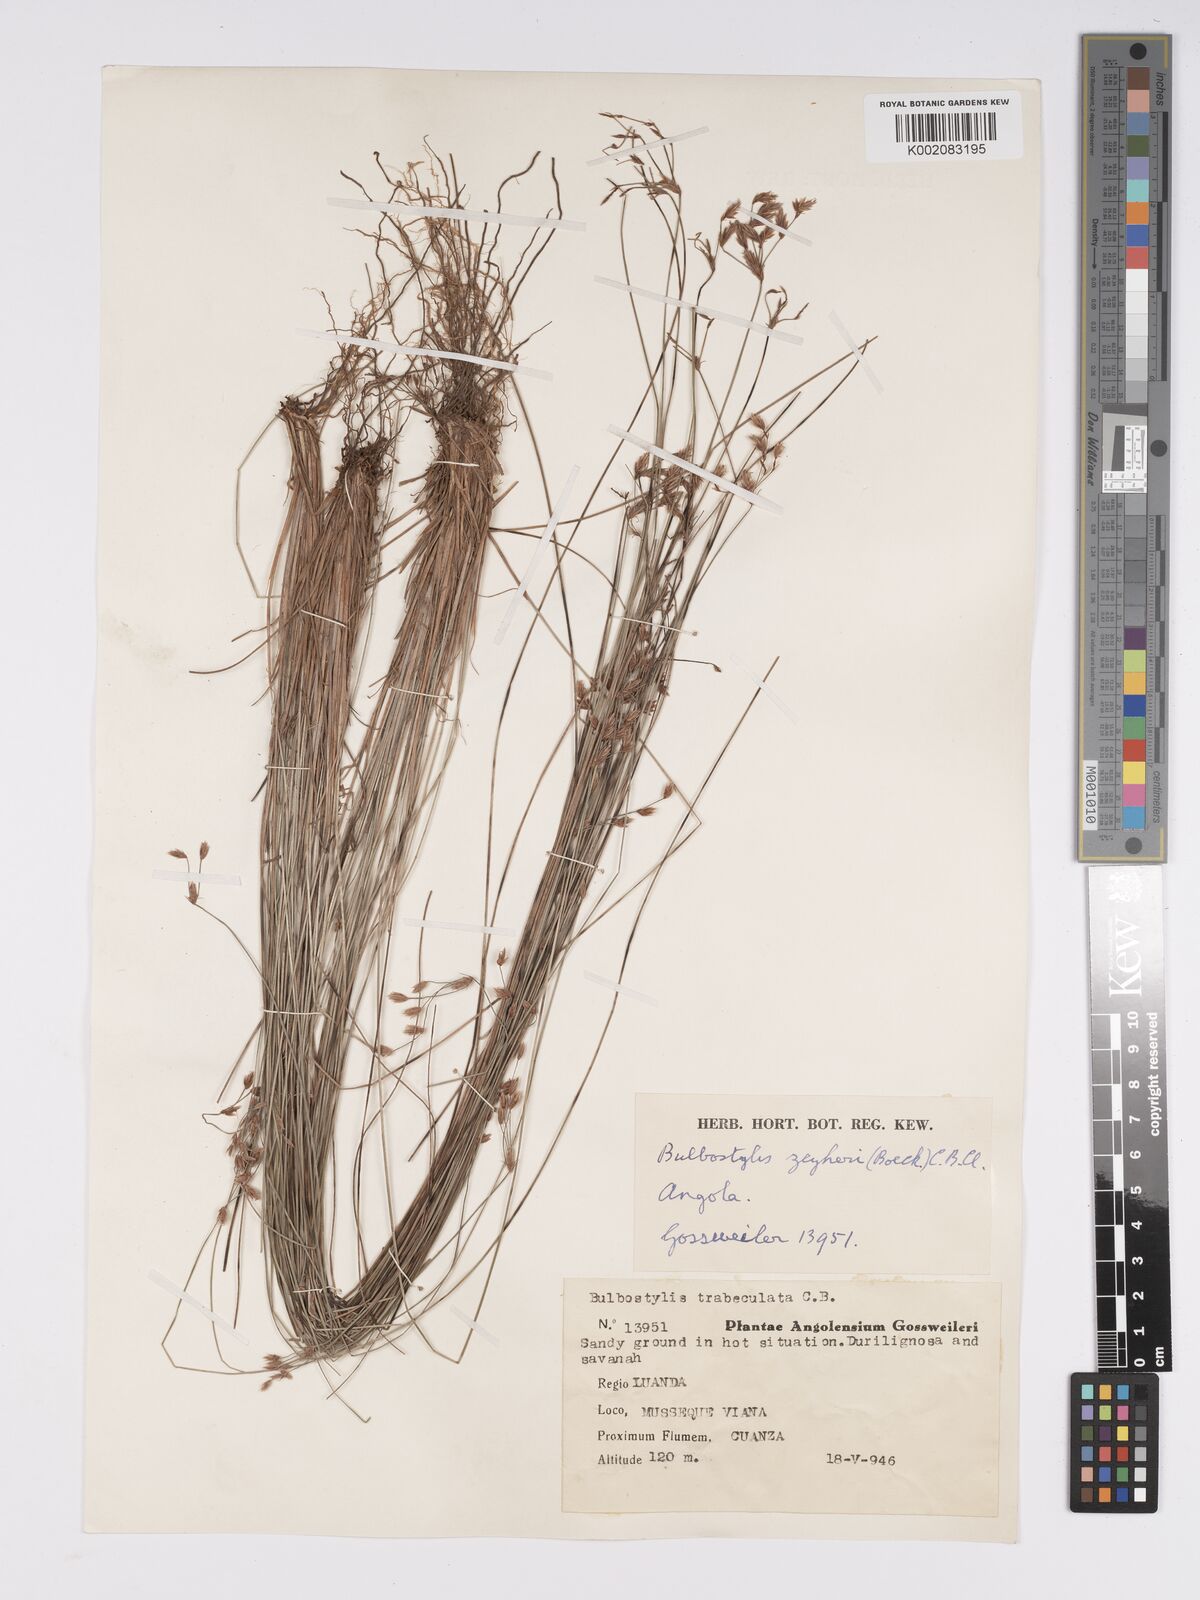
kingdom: Plantae
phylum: Tracheophyta
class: Liliopsida
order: Poales
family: Cyperaceae
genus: Bulbostylis
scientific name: Bulbostylis contexta
